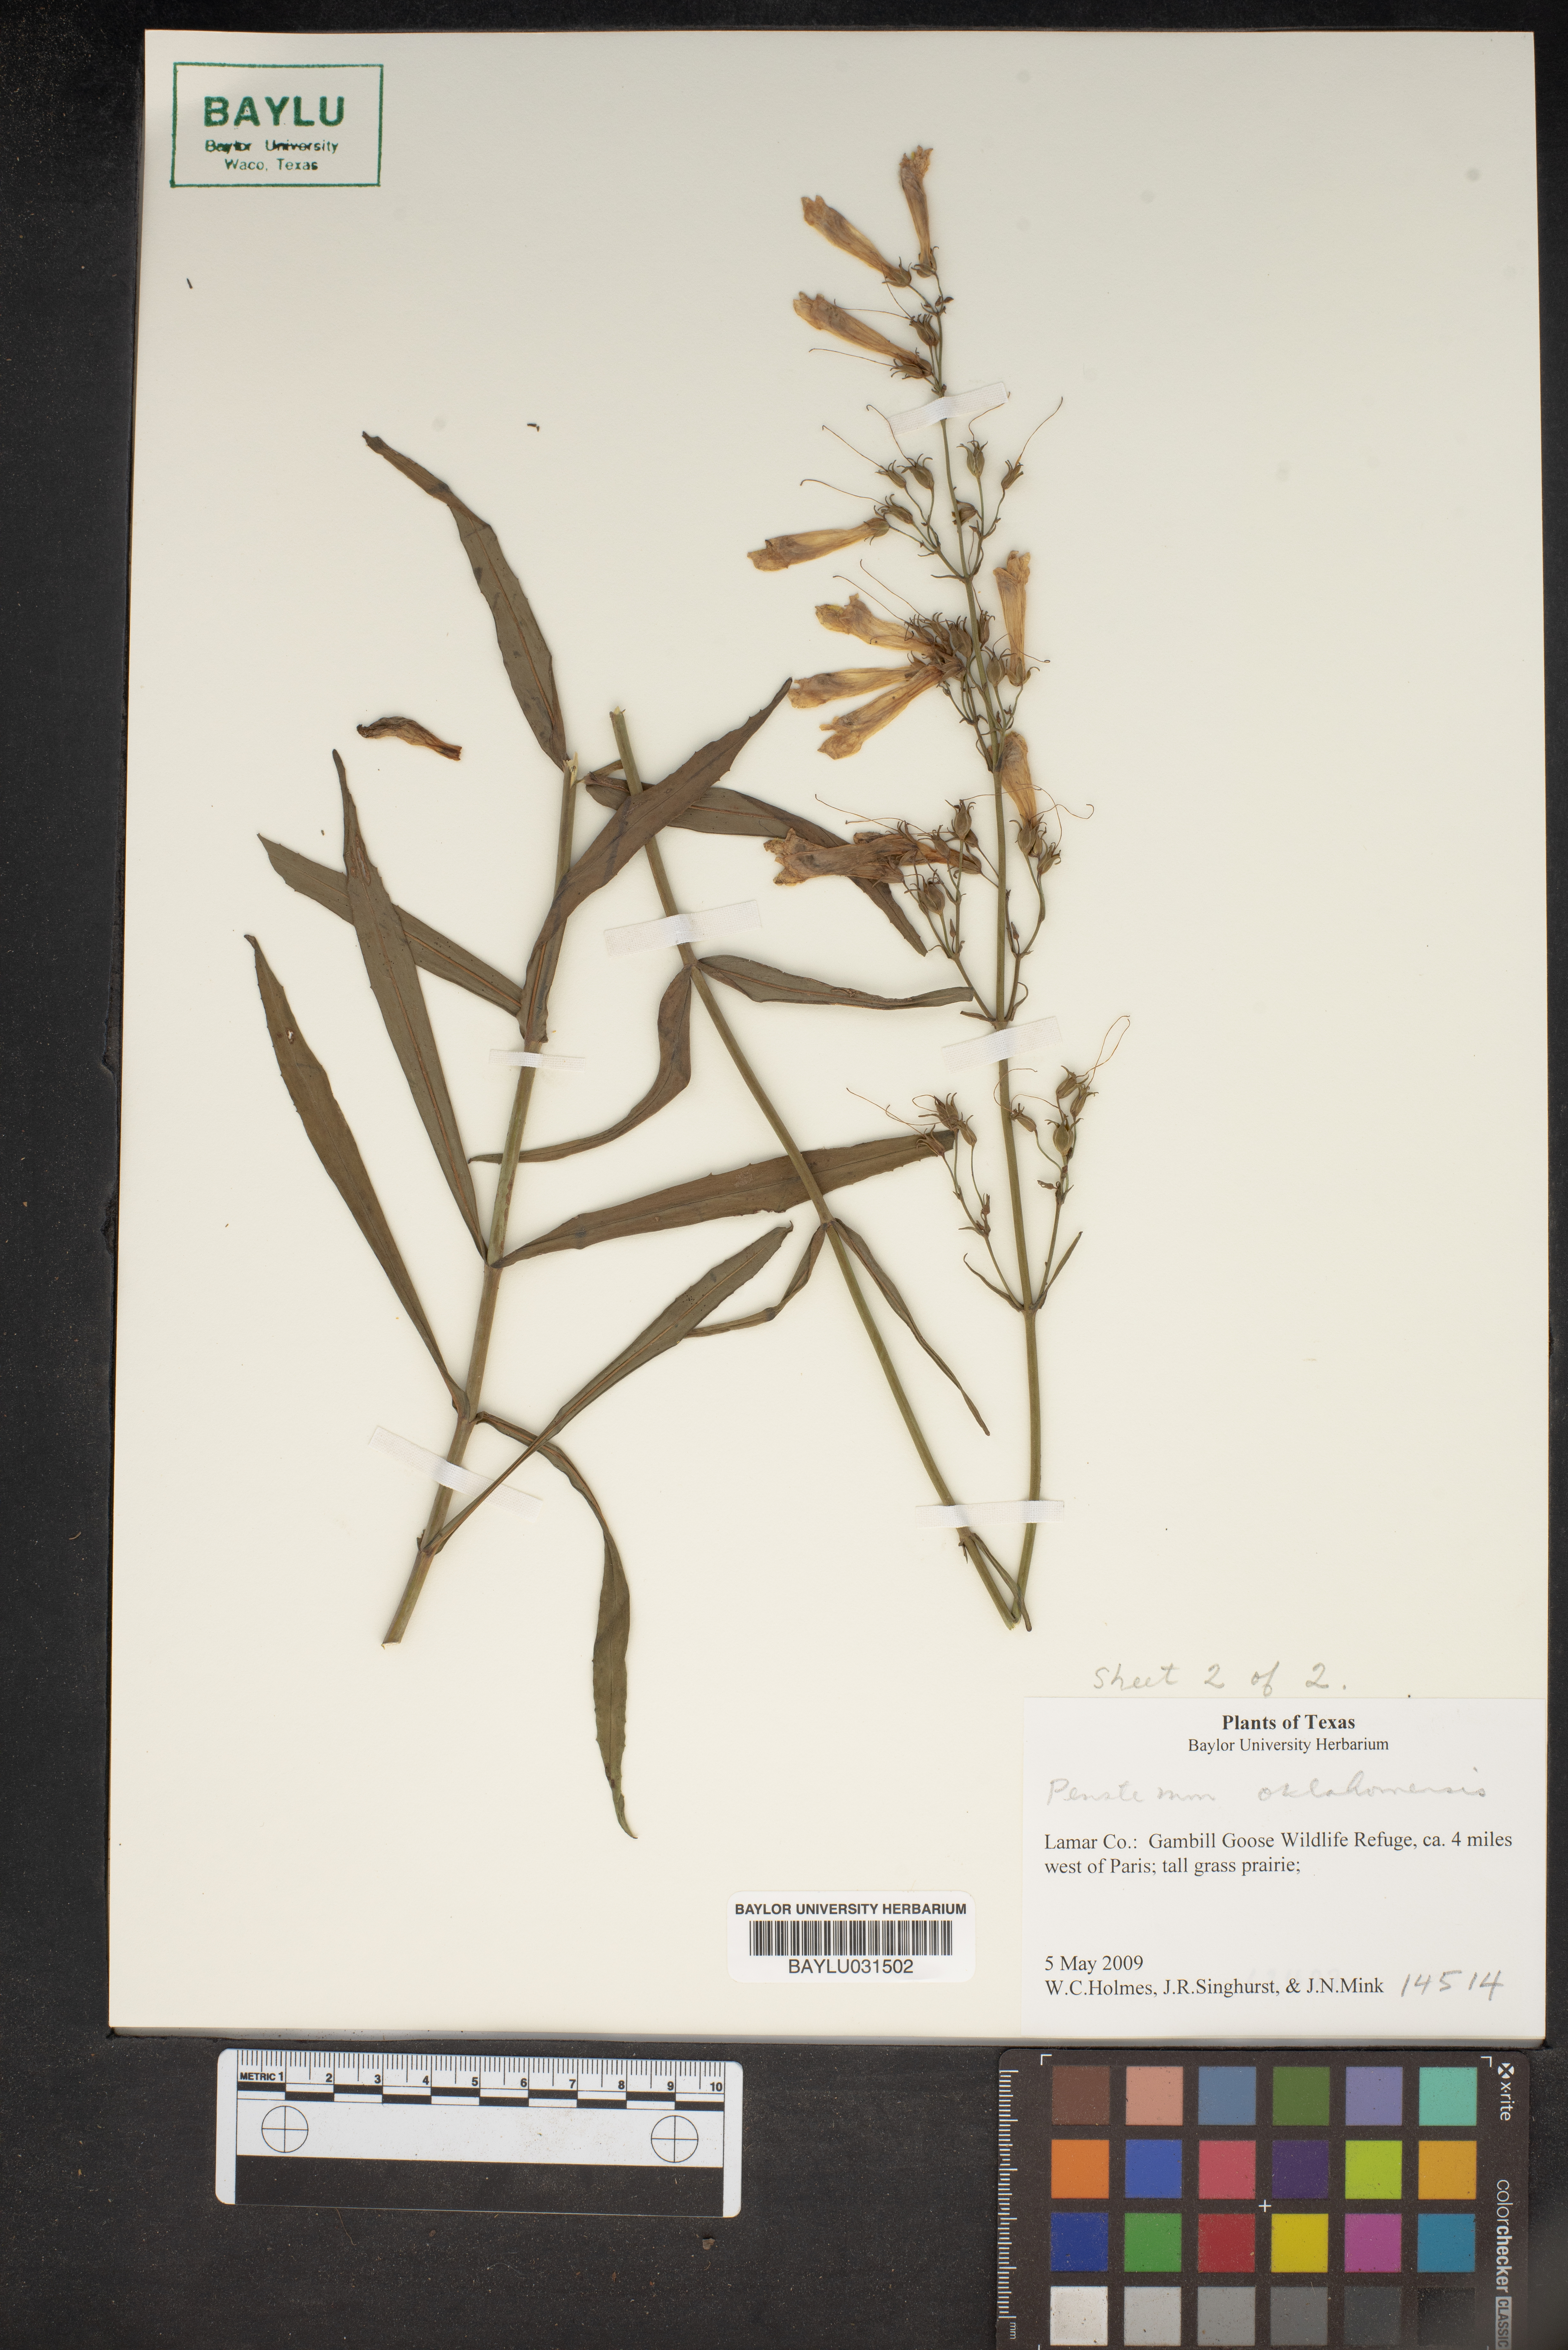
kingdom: Plantae
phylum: Tracheophyta
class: Magnoliopsida
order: Lamiales
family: Plantaginaceae
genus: Penstemon
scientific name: Penstemon oklahomensis
